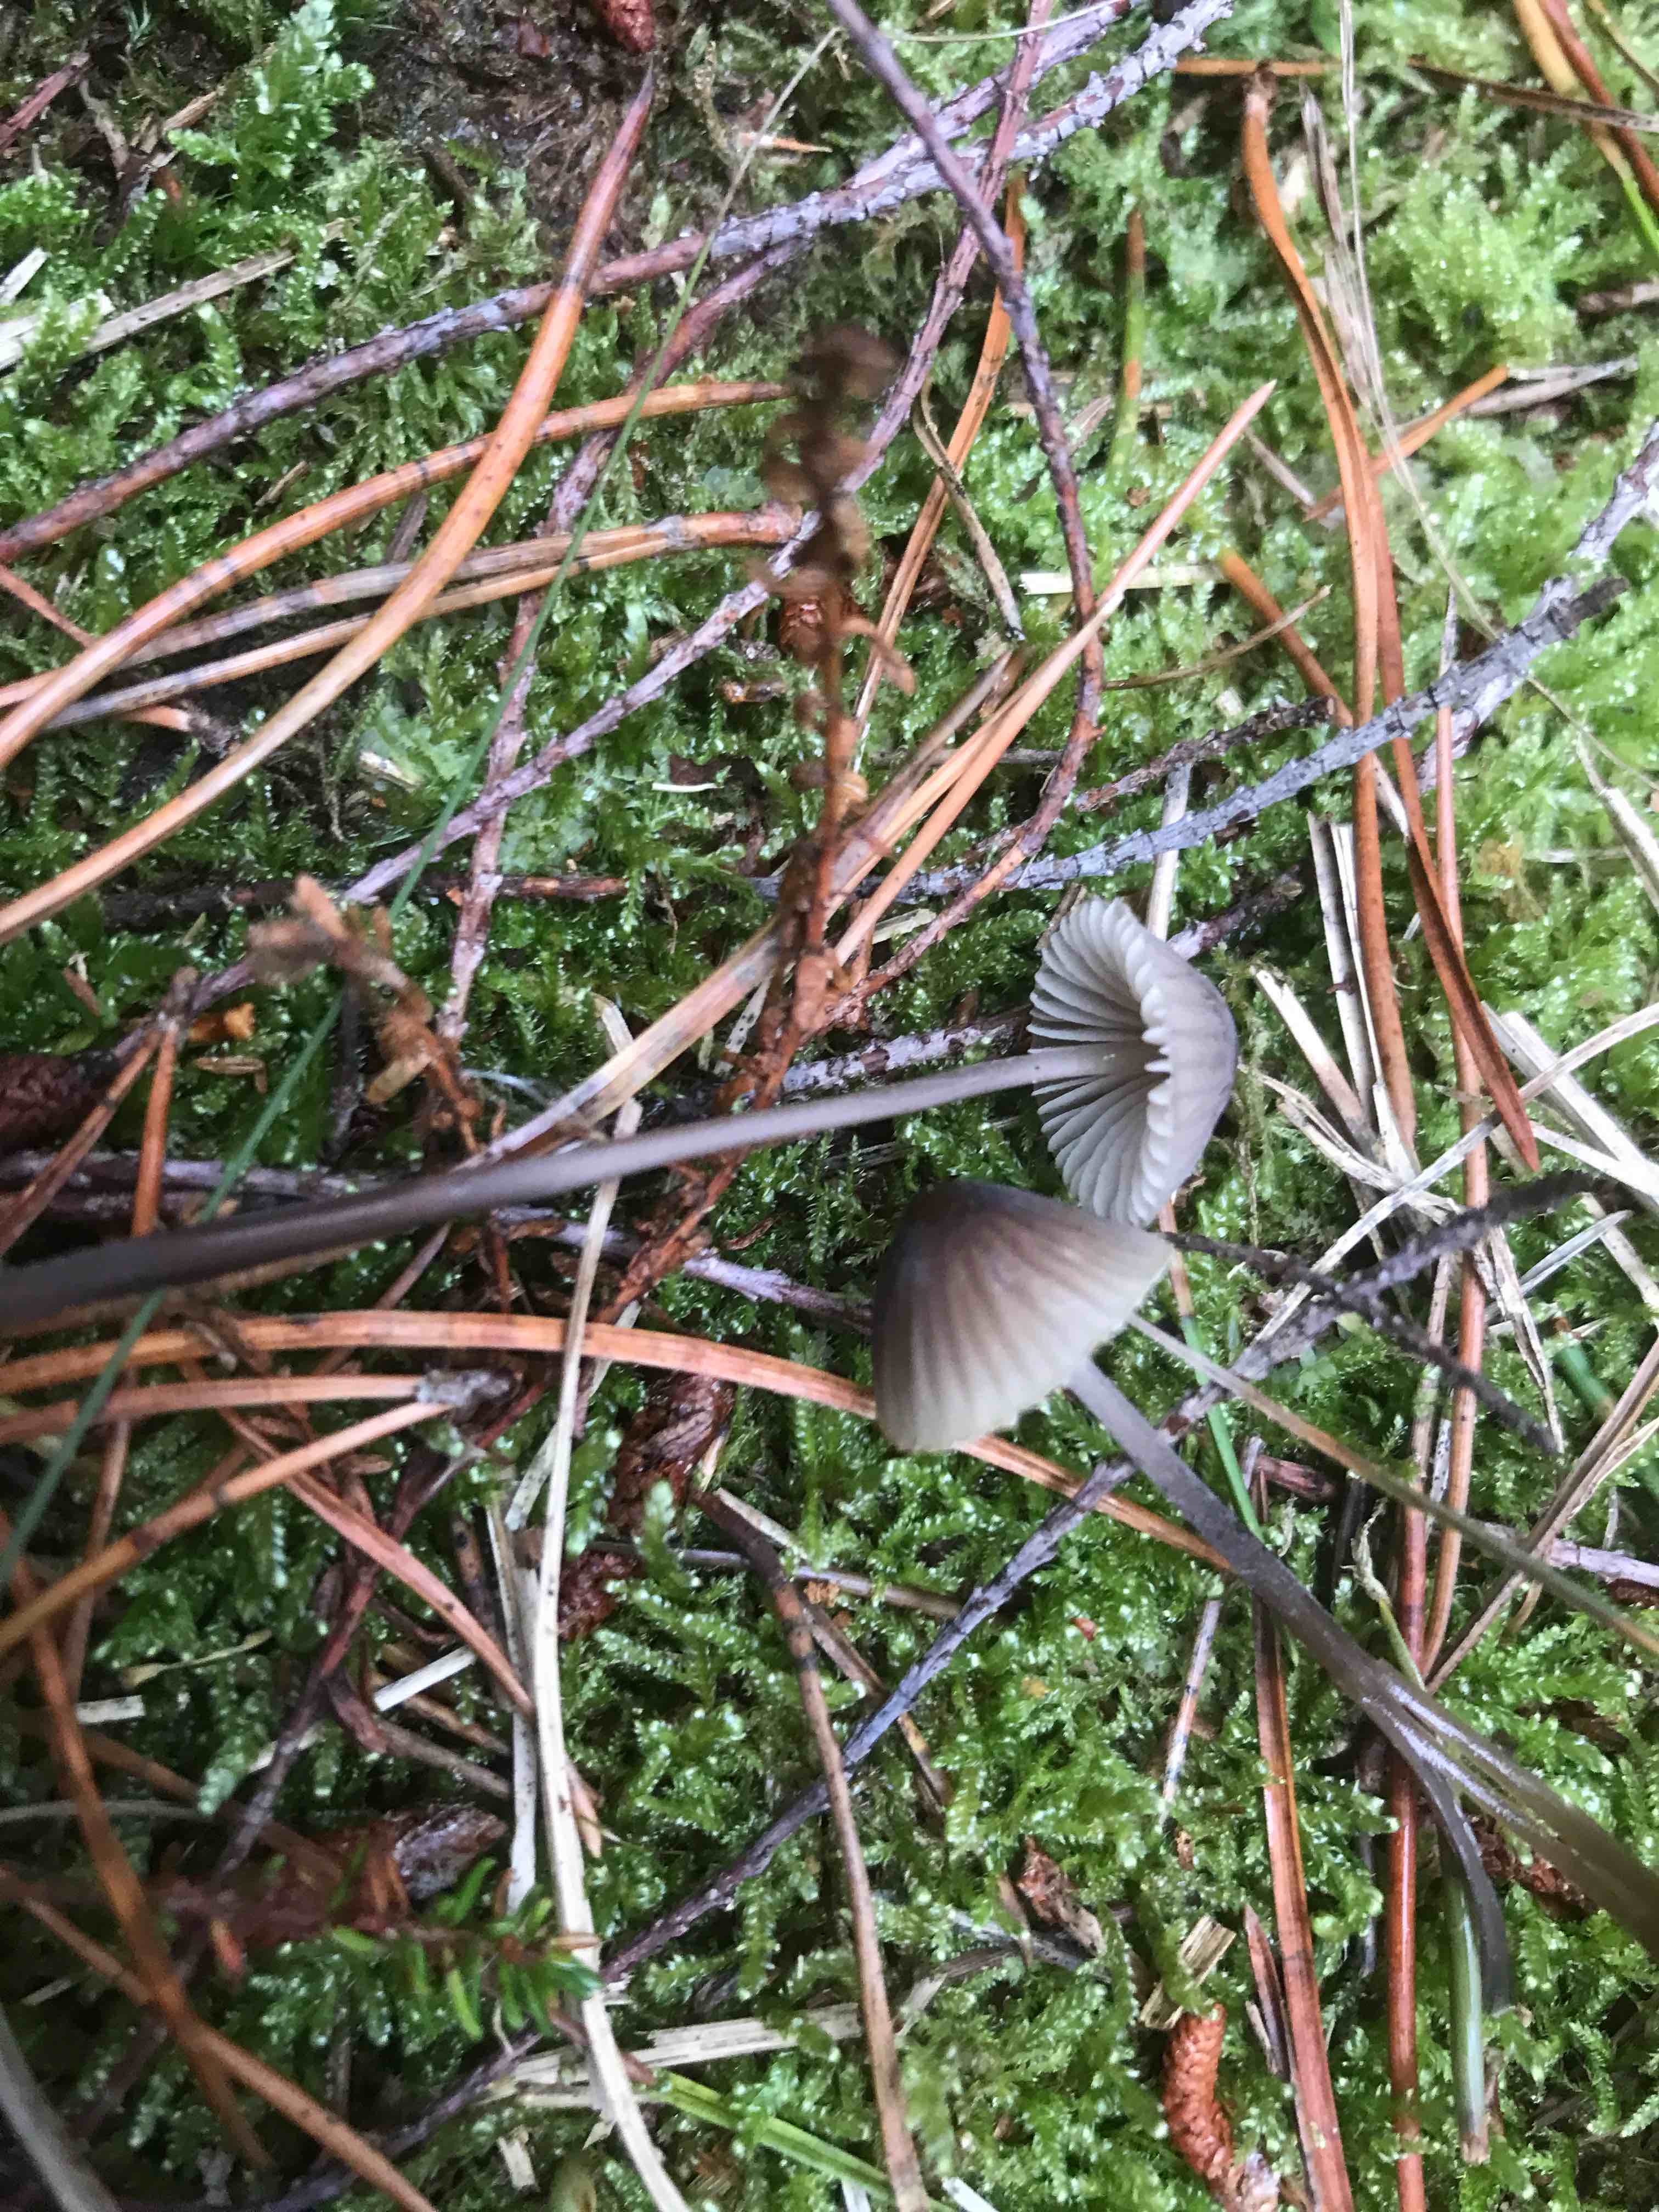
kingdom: Fungi
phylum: Basidiomycota
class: Agaricomycetes
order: Agaricales
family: Mycenaceae
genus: Mycena
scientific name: Mycena
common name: huesvamp
